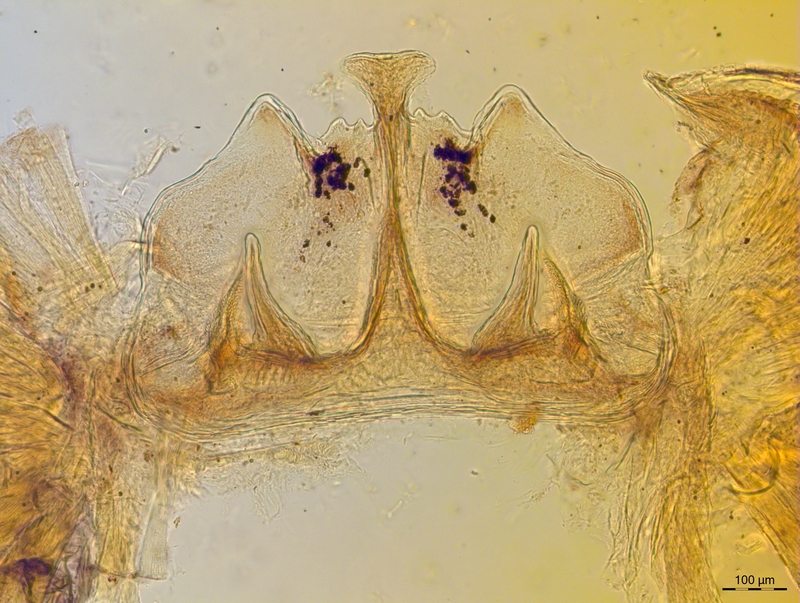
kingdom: Animalia
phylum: Arthropoda
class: Diplopoda
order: Chordeumatida
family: Craspedosomatidae
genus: Craspedosoma
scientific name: Craspedosoma transsilvanicum
